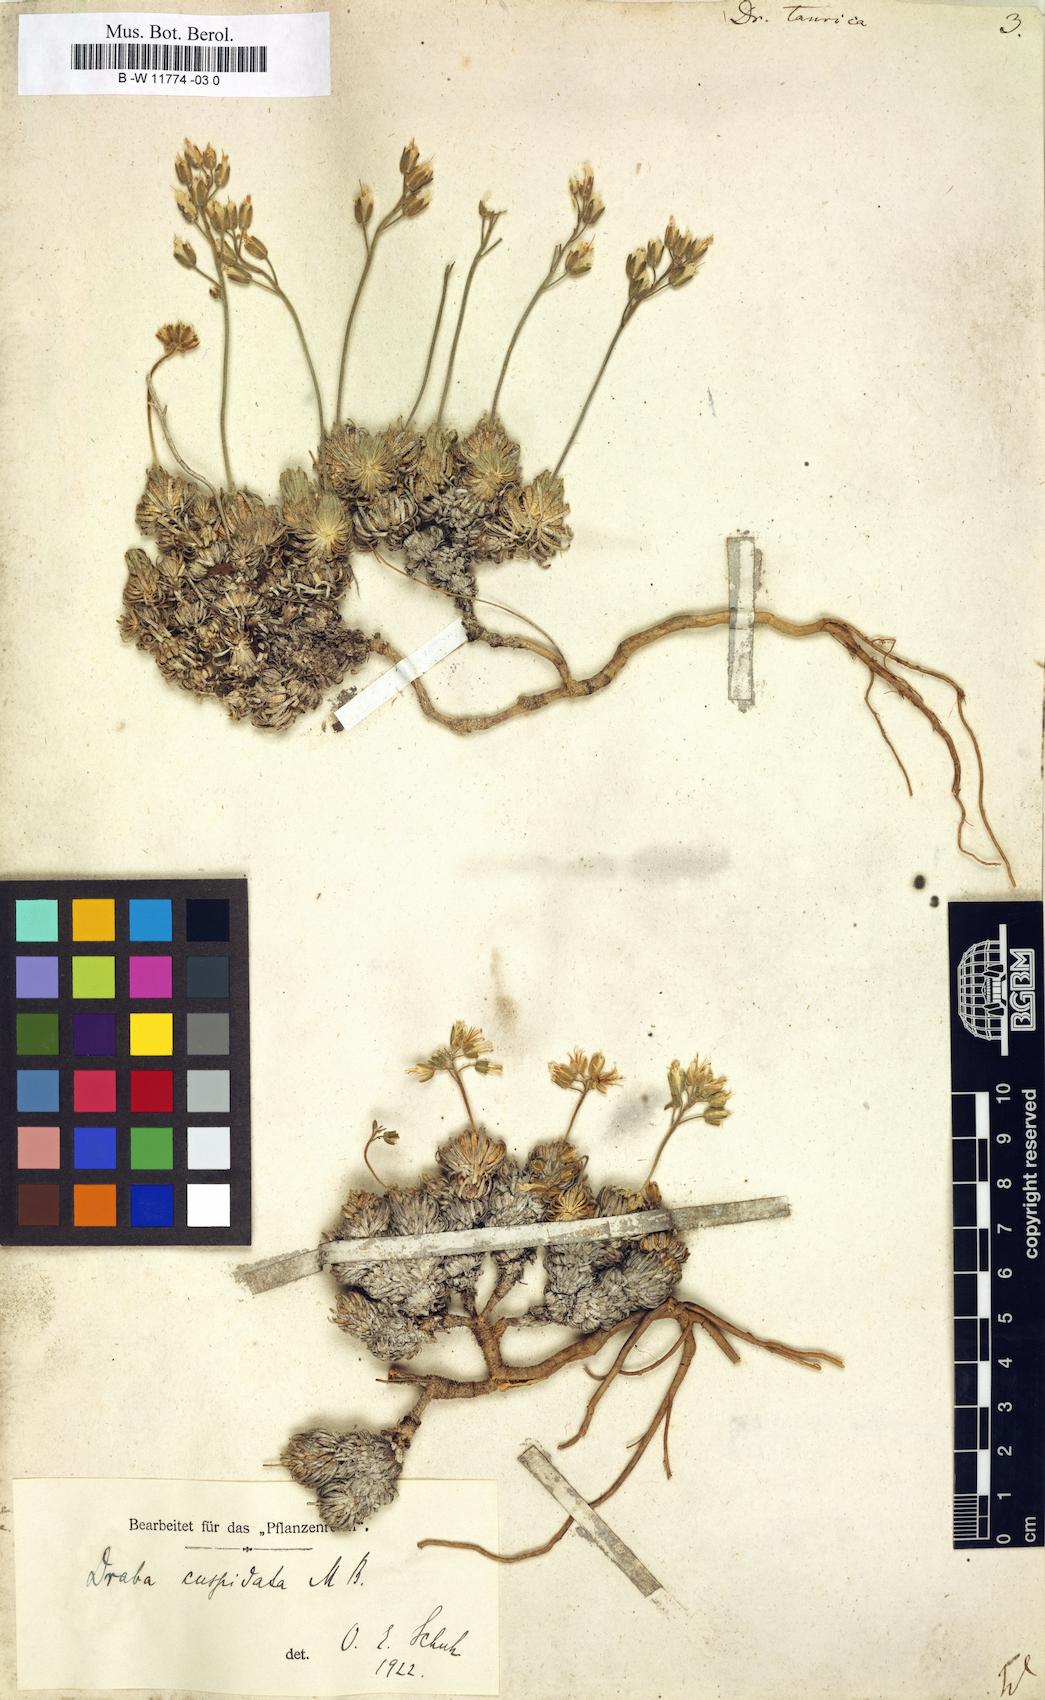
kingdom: Plantae
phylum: Tracheophyta
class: Magnoliopsida
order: Brassicales
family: Brassicaceae
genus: Draba
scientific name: Draba cuspidata
